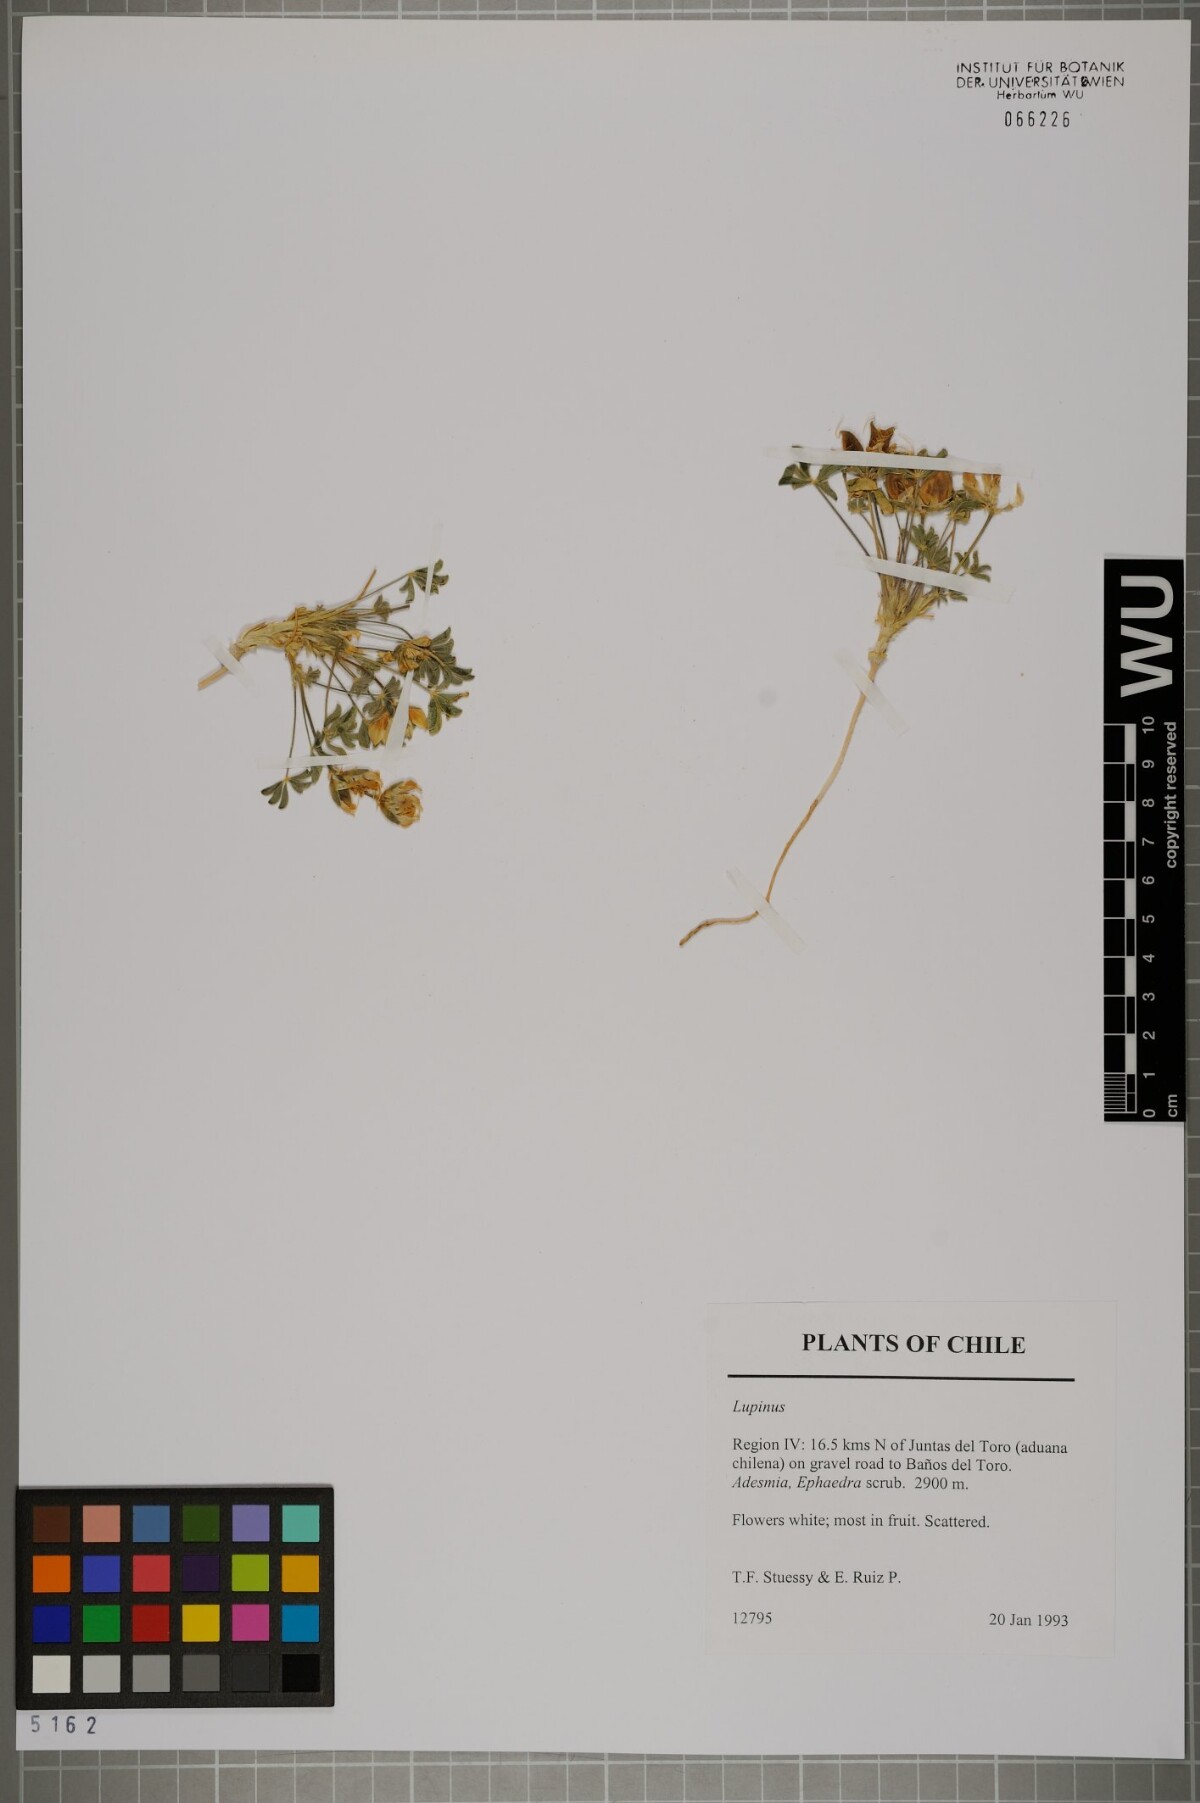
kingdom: Plantae
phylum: Tracheophyta
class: Magnoliopsida
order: Fabales
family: Fabaceae
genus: Lupinus
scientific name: Lupinus
